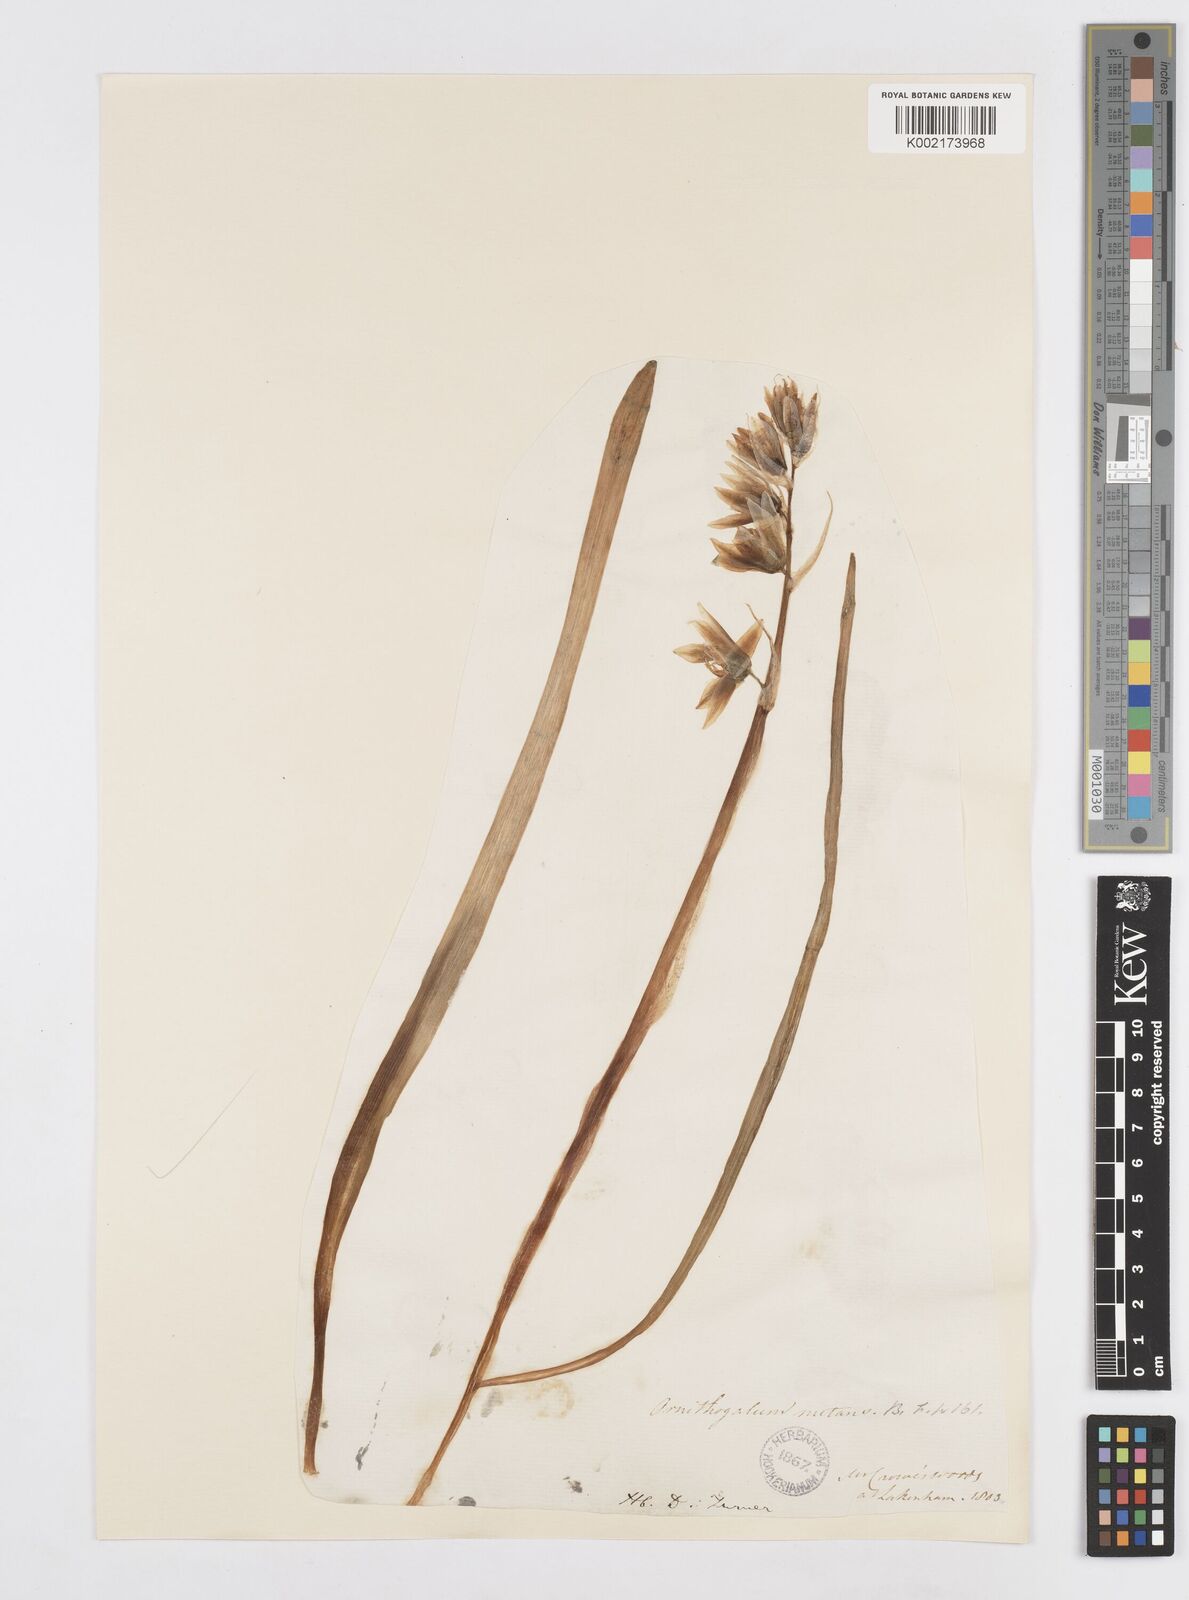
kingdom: Plantae
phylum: Tracheophyta
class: Liliopsida
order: Asparagales
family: Asparagaceae
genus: Ornithogalum
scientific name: Ornithogalum nutans
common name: Drooping star-of-bethlehem
